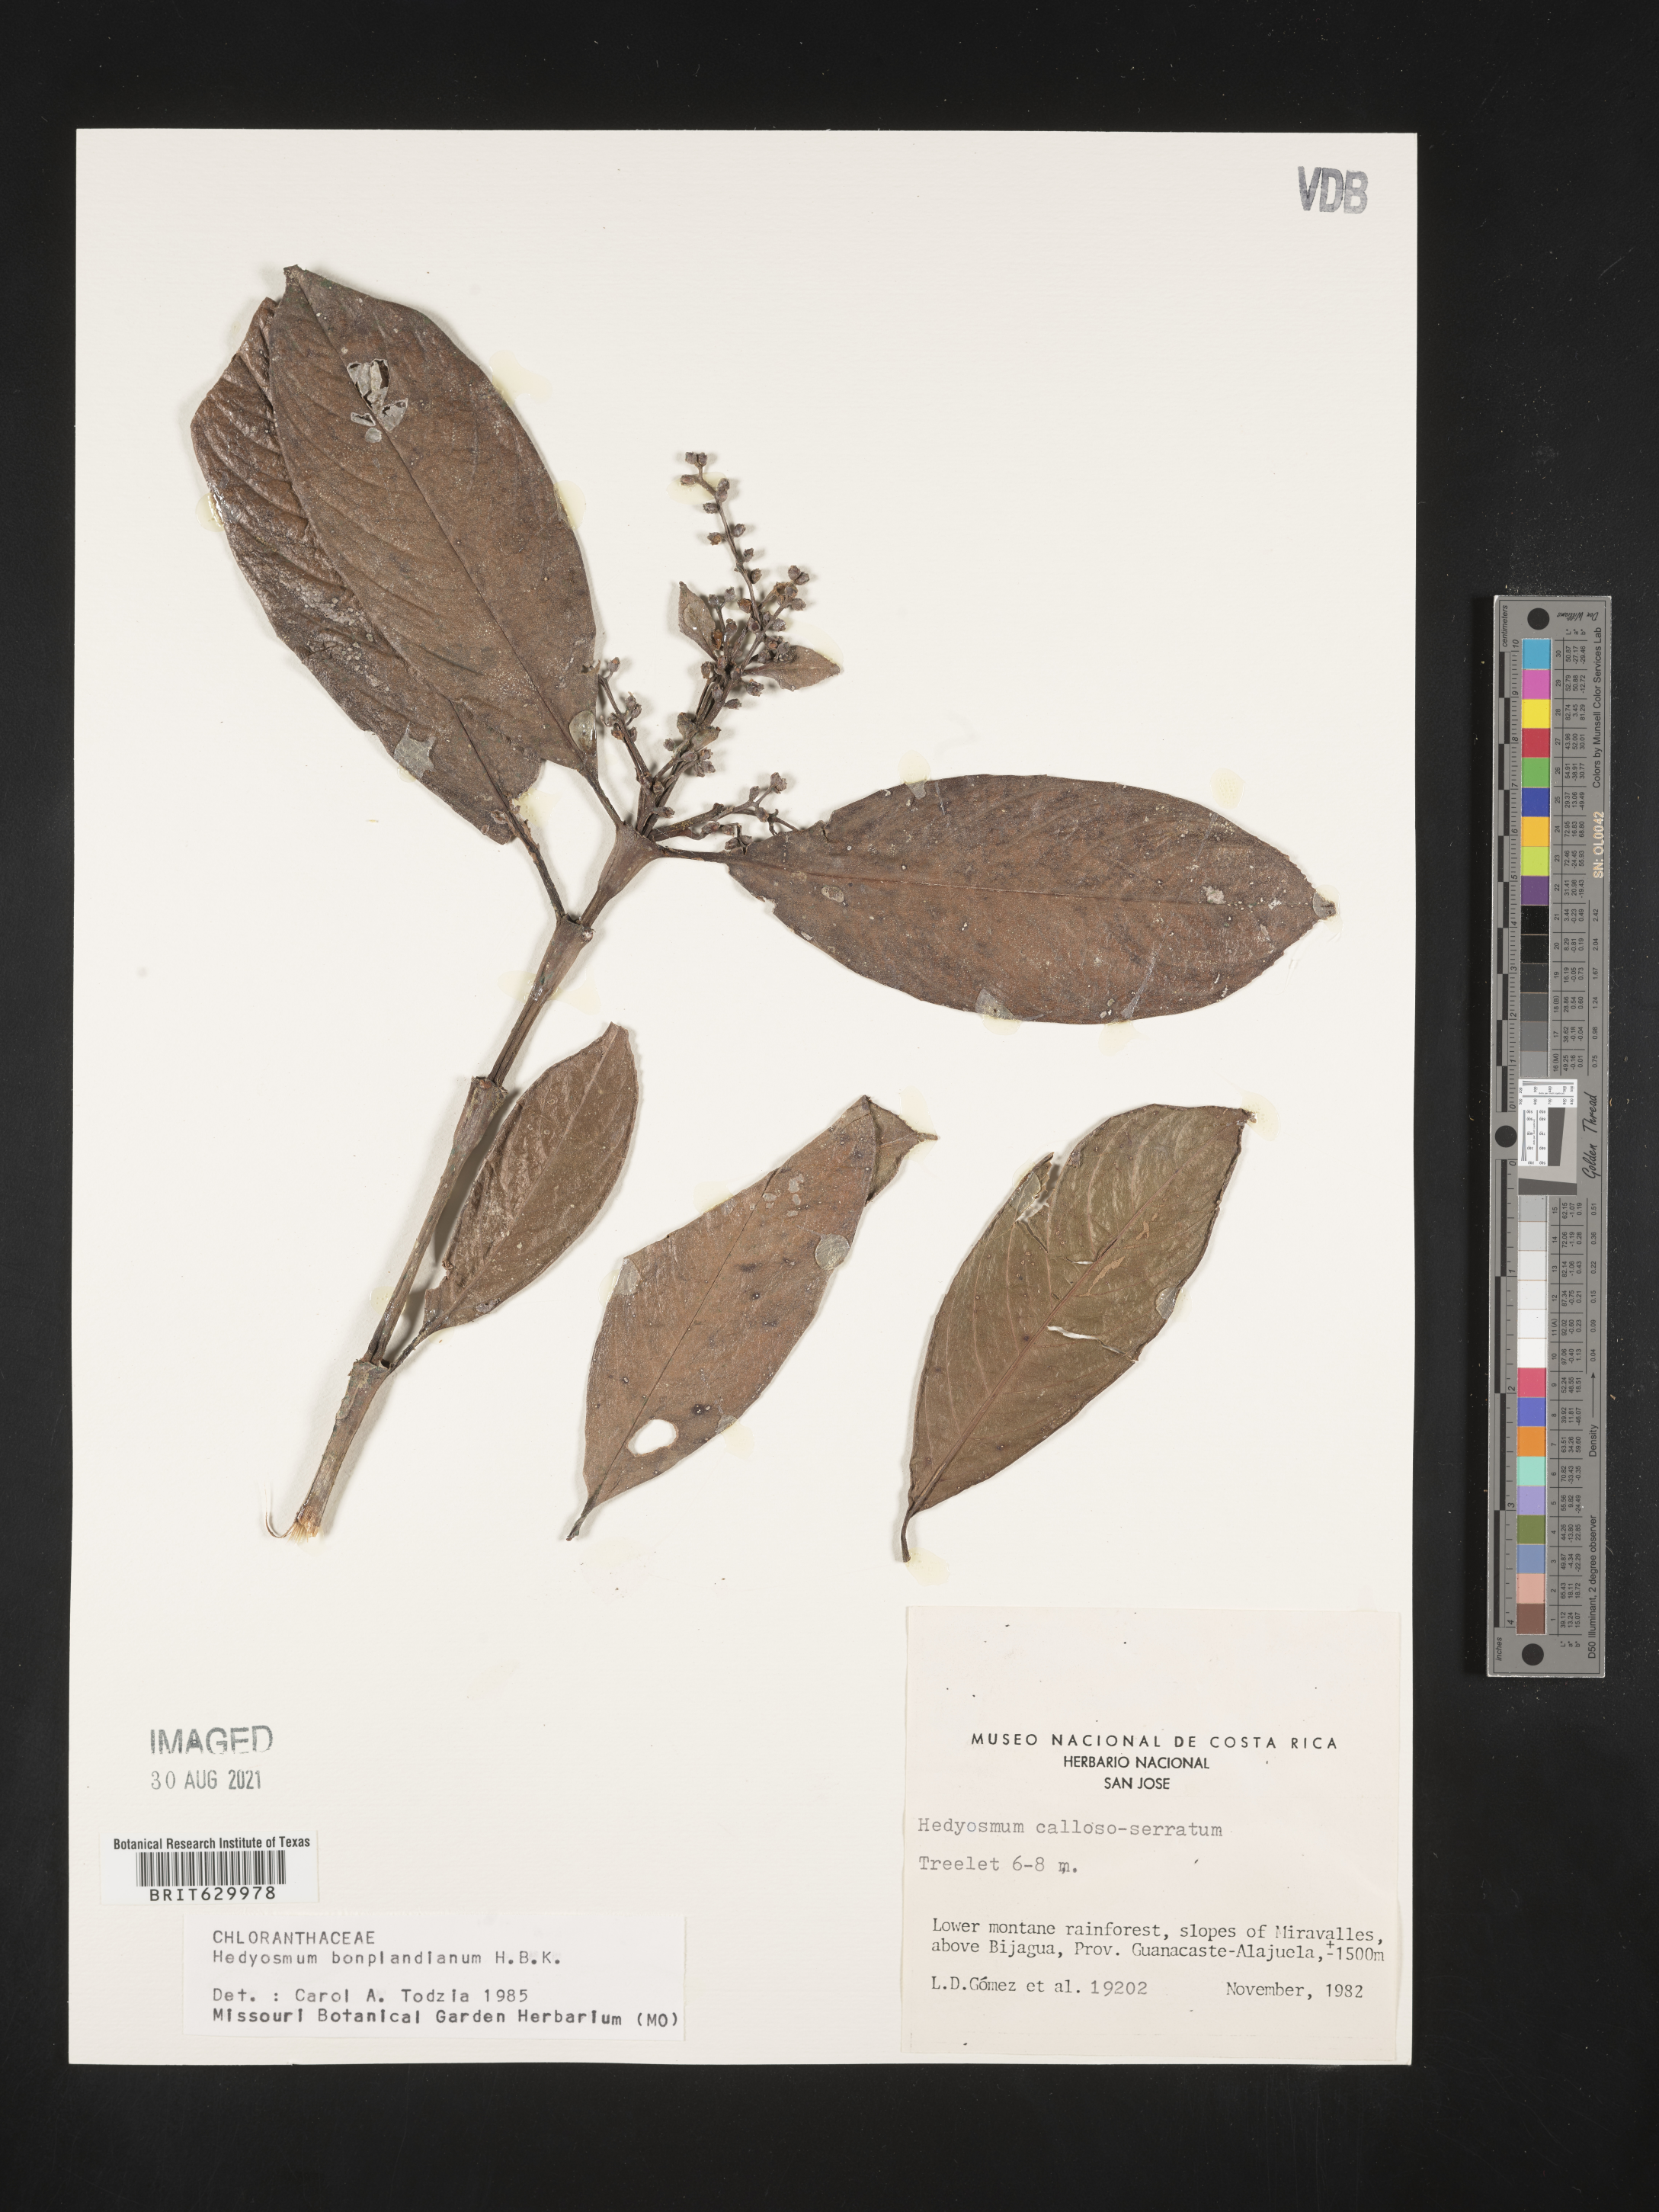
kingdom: Plantae
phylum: Tracheophyta
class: Magnoliopsida
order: Chloranthales
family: Chloranthaceae
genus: Hedyosmum
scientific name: Hedyosmum bonplandianum
